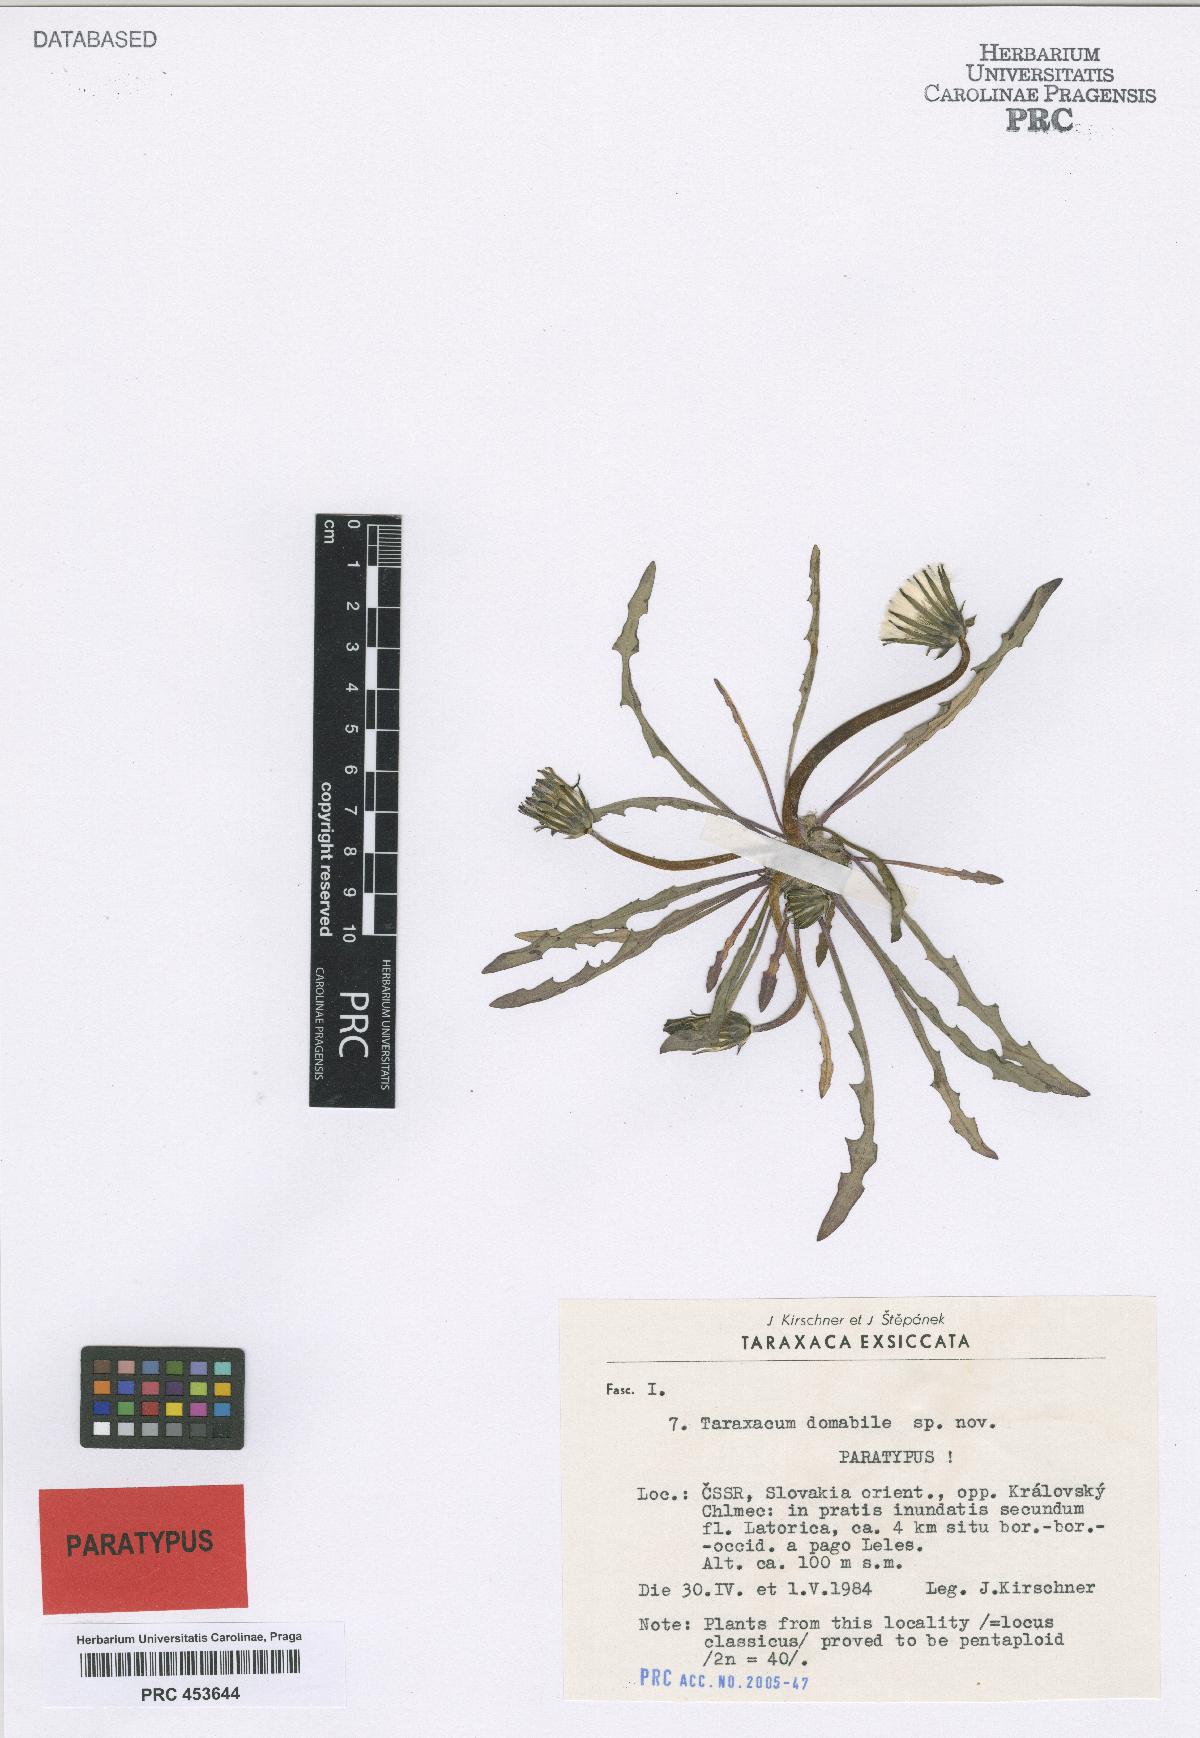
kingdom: Plantae
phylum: Tracheophyta
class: Magnoliopsida
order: Asterales
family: Asteraceae
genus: Taraxacum
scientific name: Taraxacum domabile
